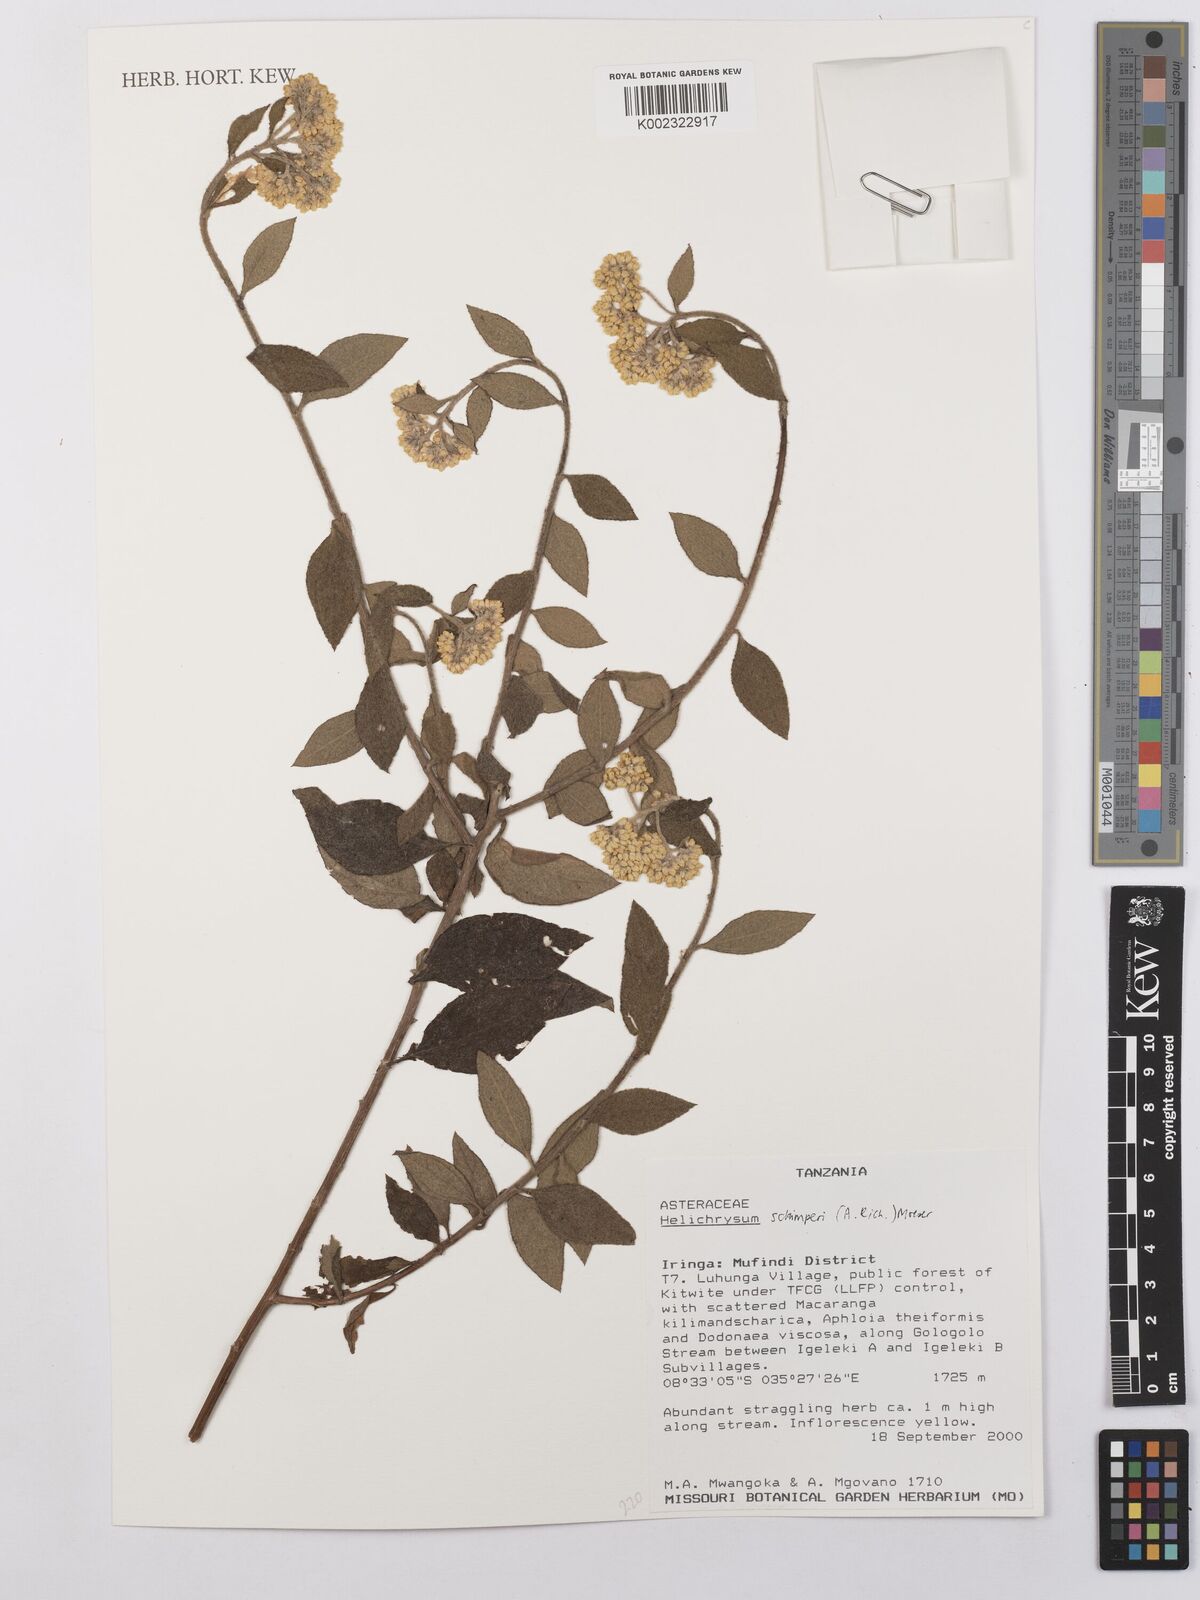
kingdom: Plantae
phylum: Tracheophyta
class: Magnoliopsida
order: Asterales
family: Asteraceae
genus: Helichrysum
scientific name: Helichrysum schimperi
